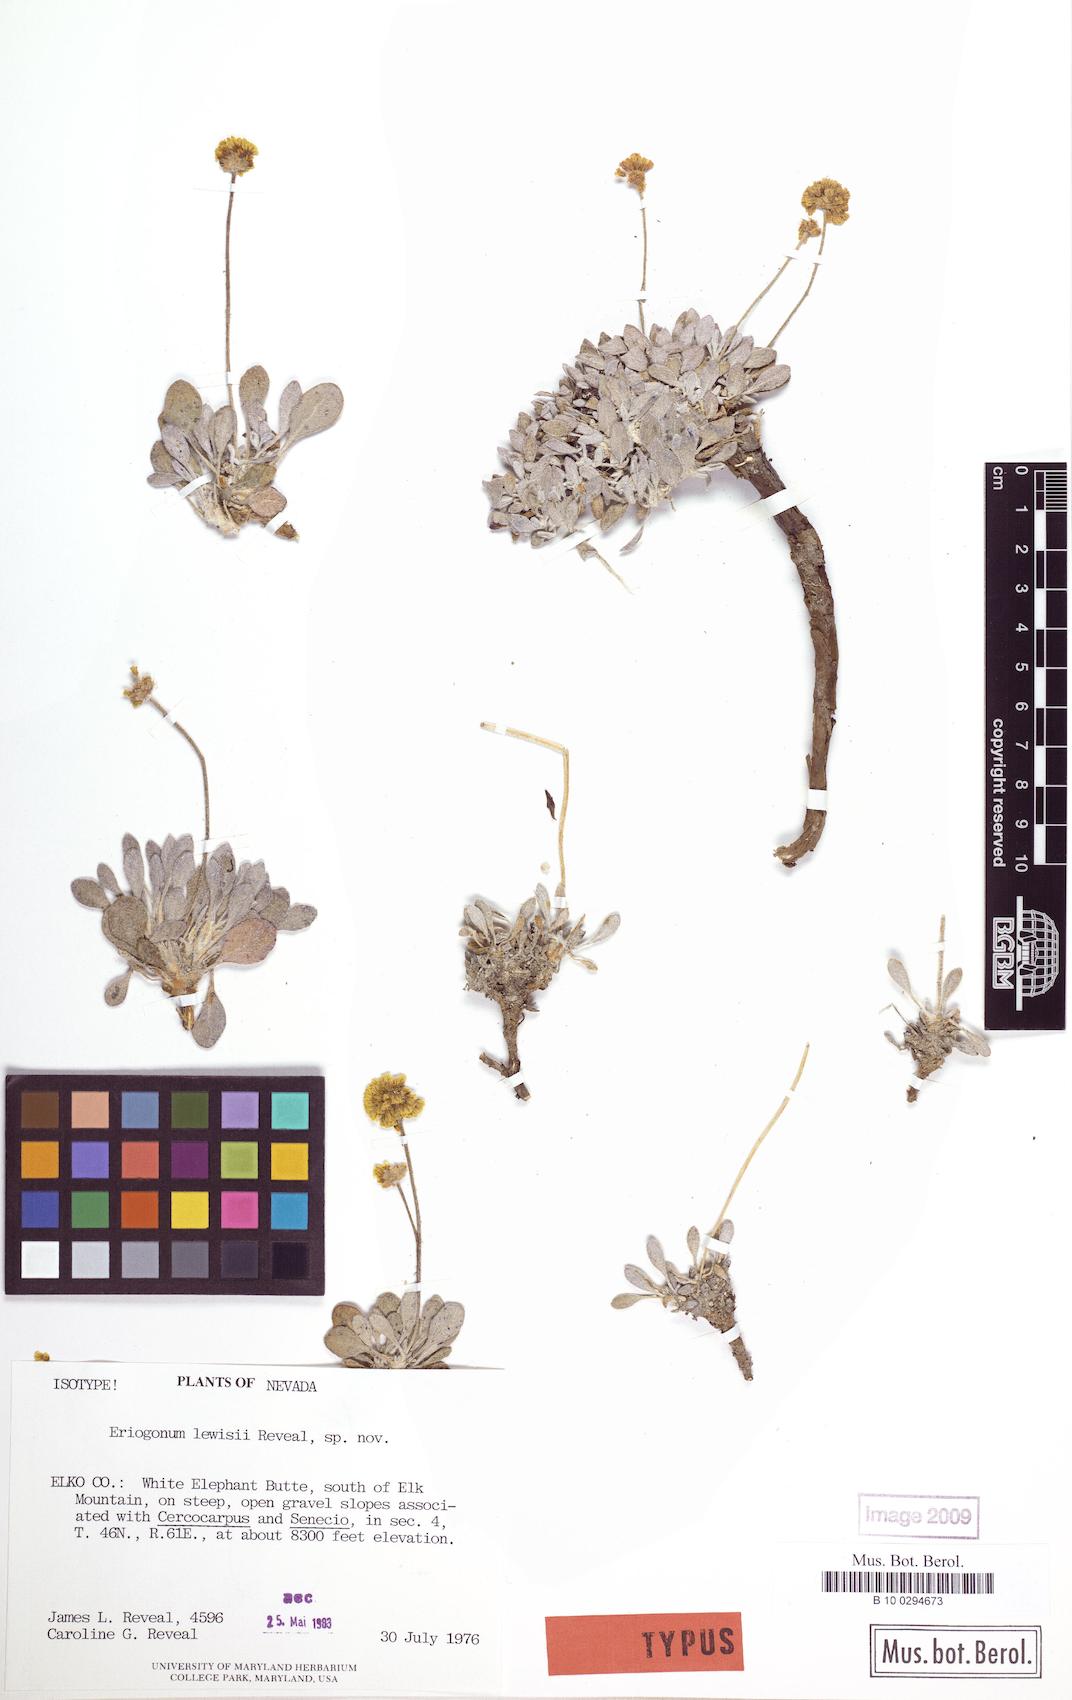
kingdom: Plantae
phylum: Tracheophyta
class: Magnoliopsida
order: Caryophyllales
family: Polygonaceae
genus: Eriogonum
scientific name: Eriogonum desertorum
